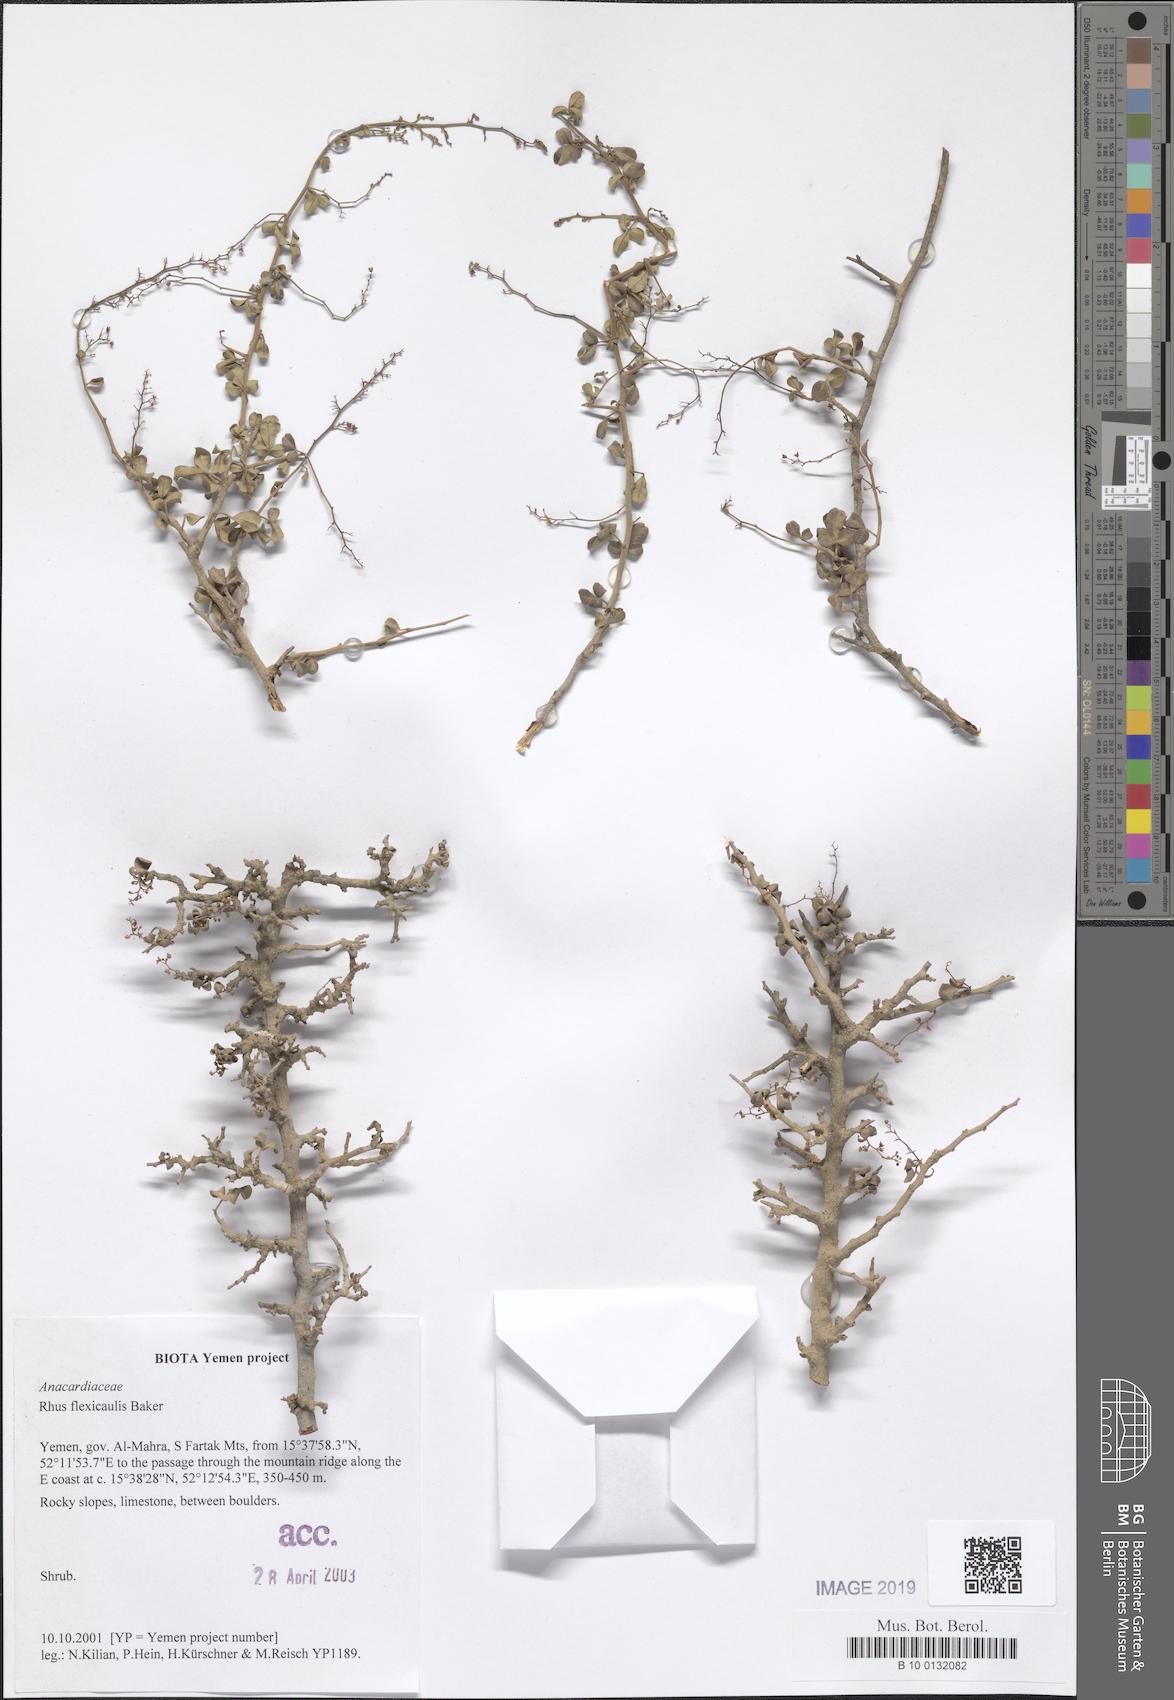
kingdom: Plantae
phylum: Tracheophyta
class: Magnoliopsida
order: Sapindales
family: Anacardiaceae
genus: Searsia
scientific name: Searsia flexicaulis
